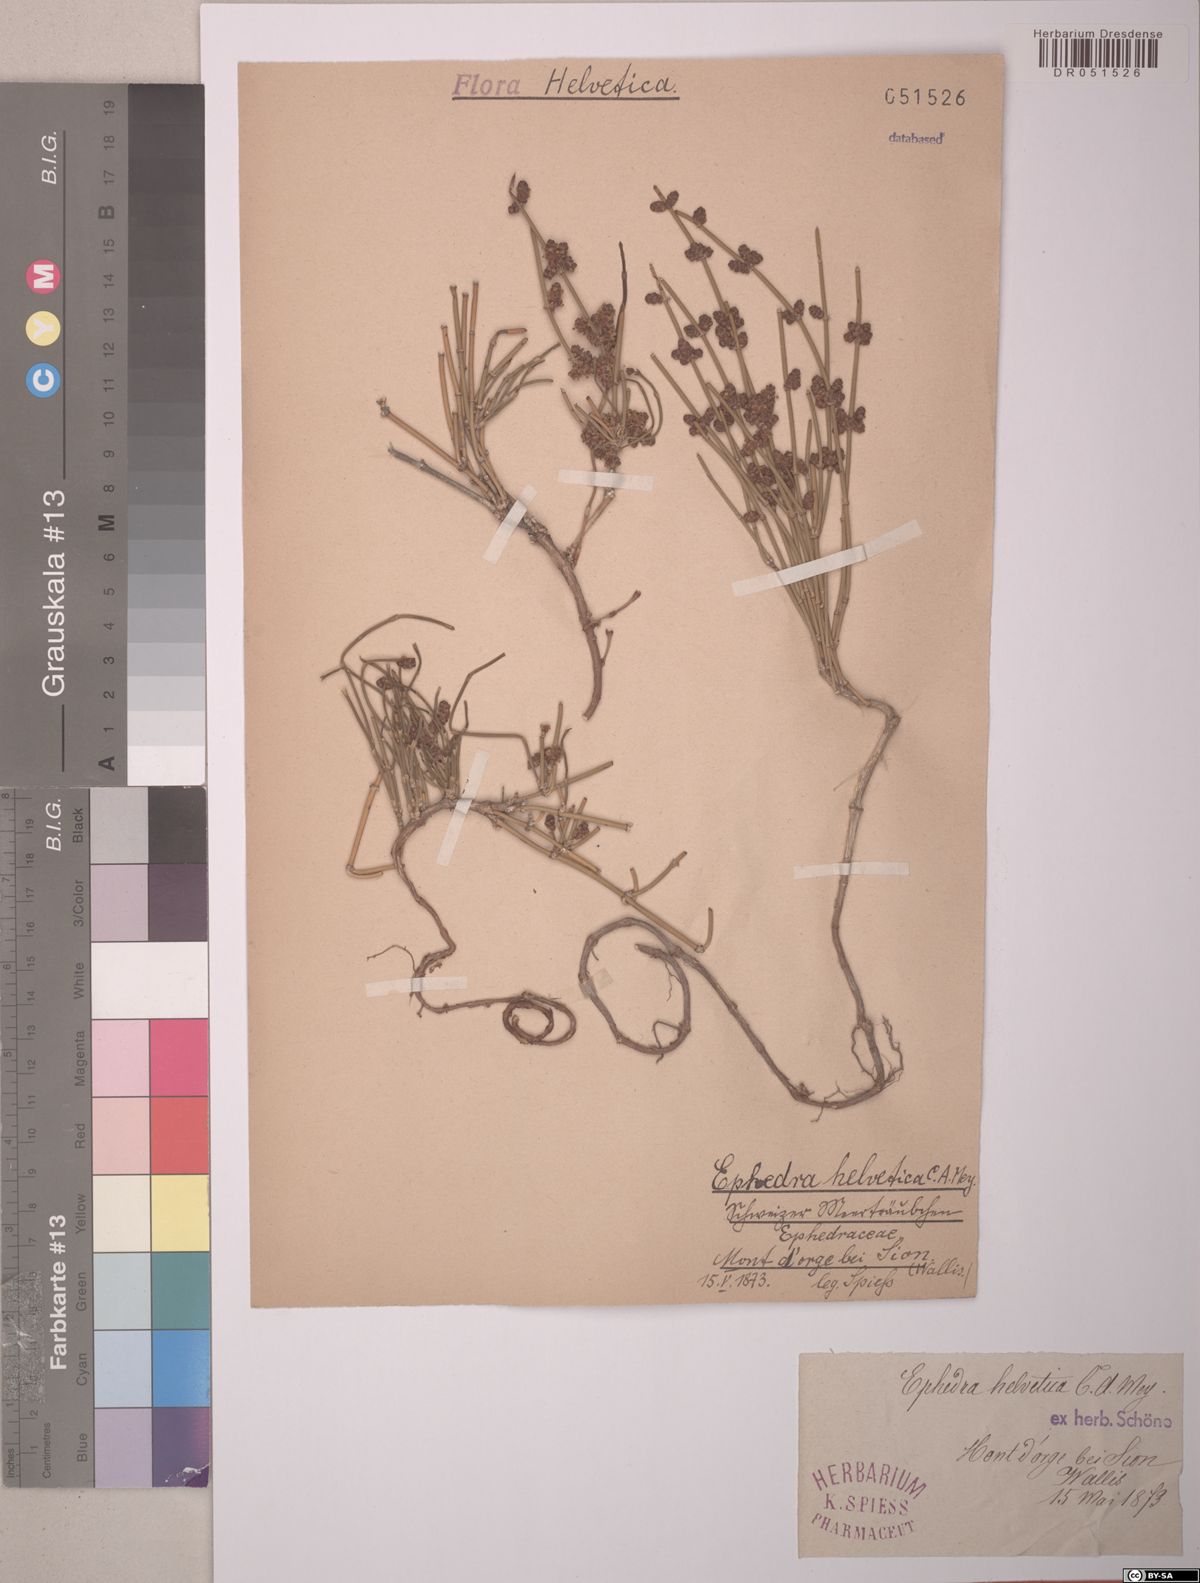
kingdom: Plantae
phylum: Tracheophyta
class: Gnetopsida
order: Ephedrales
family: Ephedraceae
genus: Ephedra
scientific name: Ephedra distachya
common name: Sea grape
